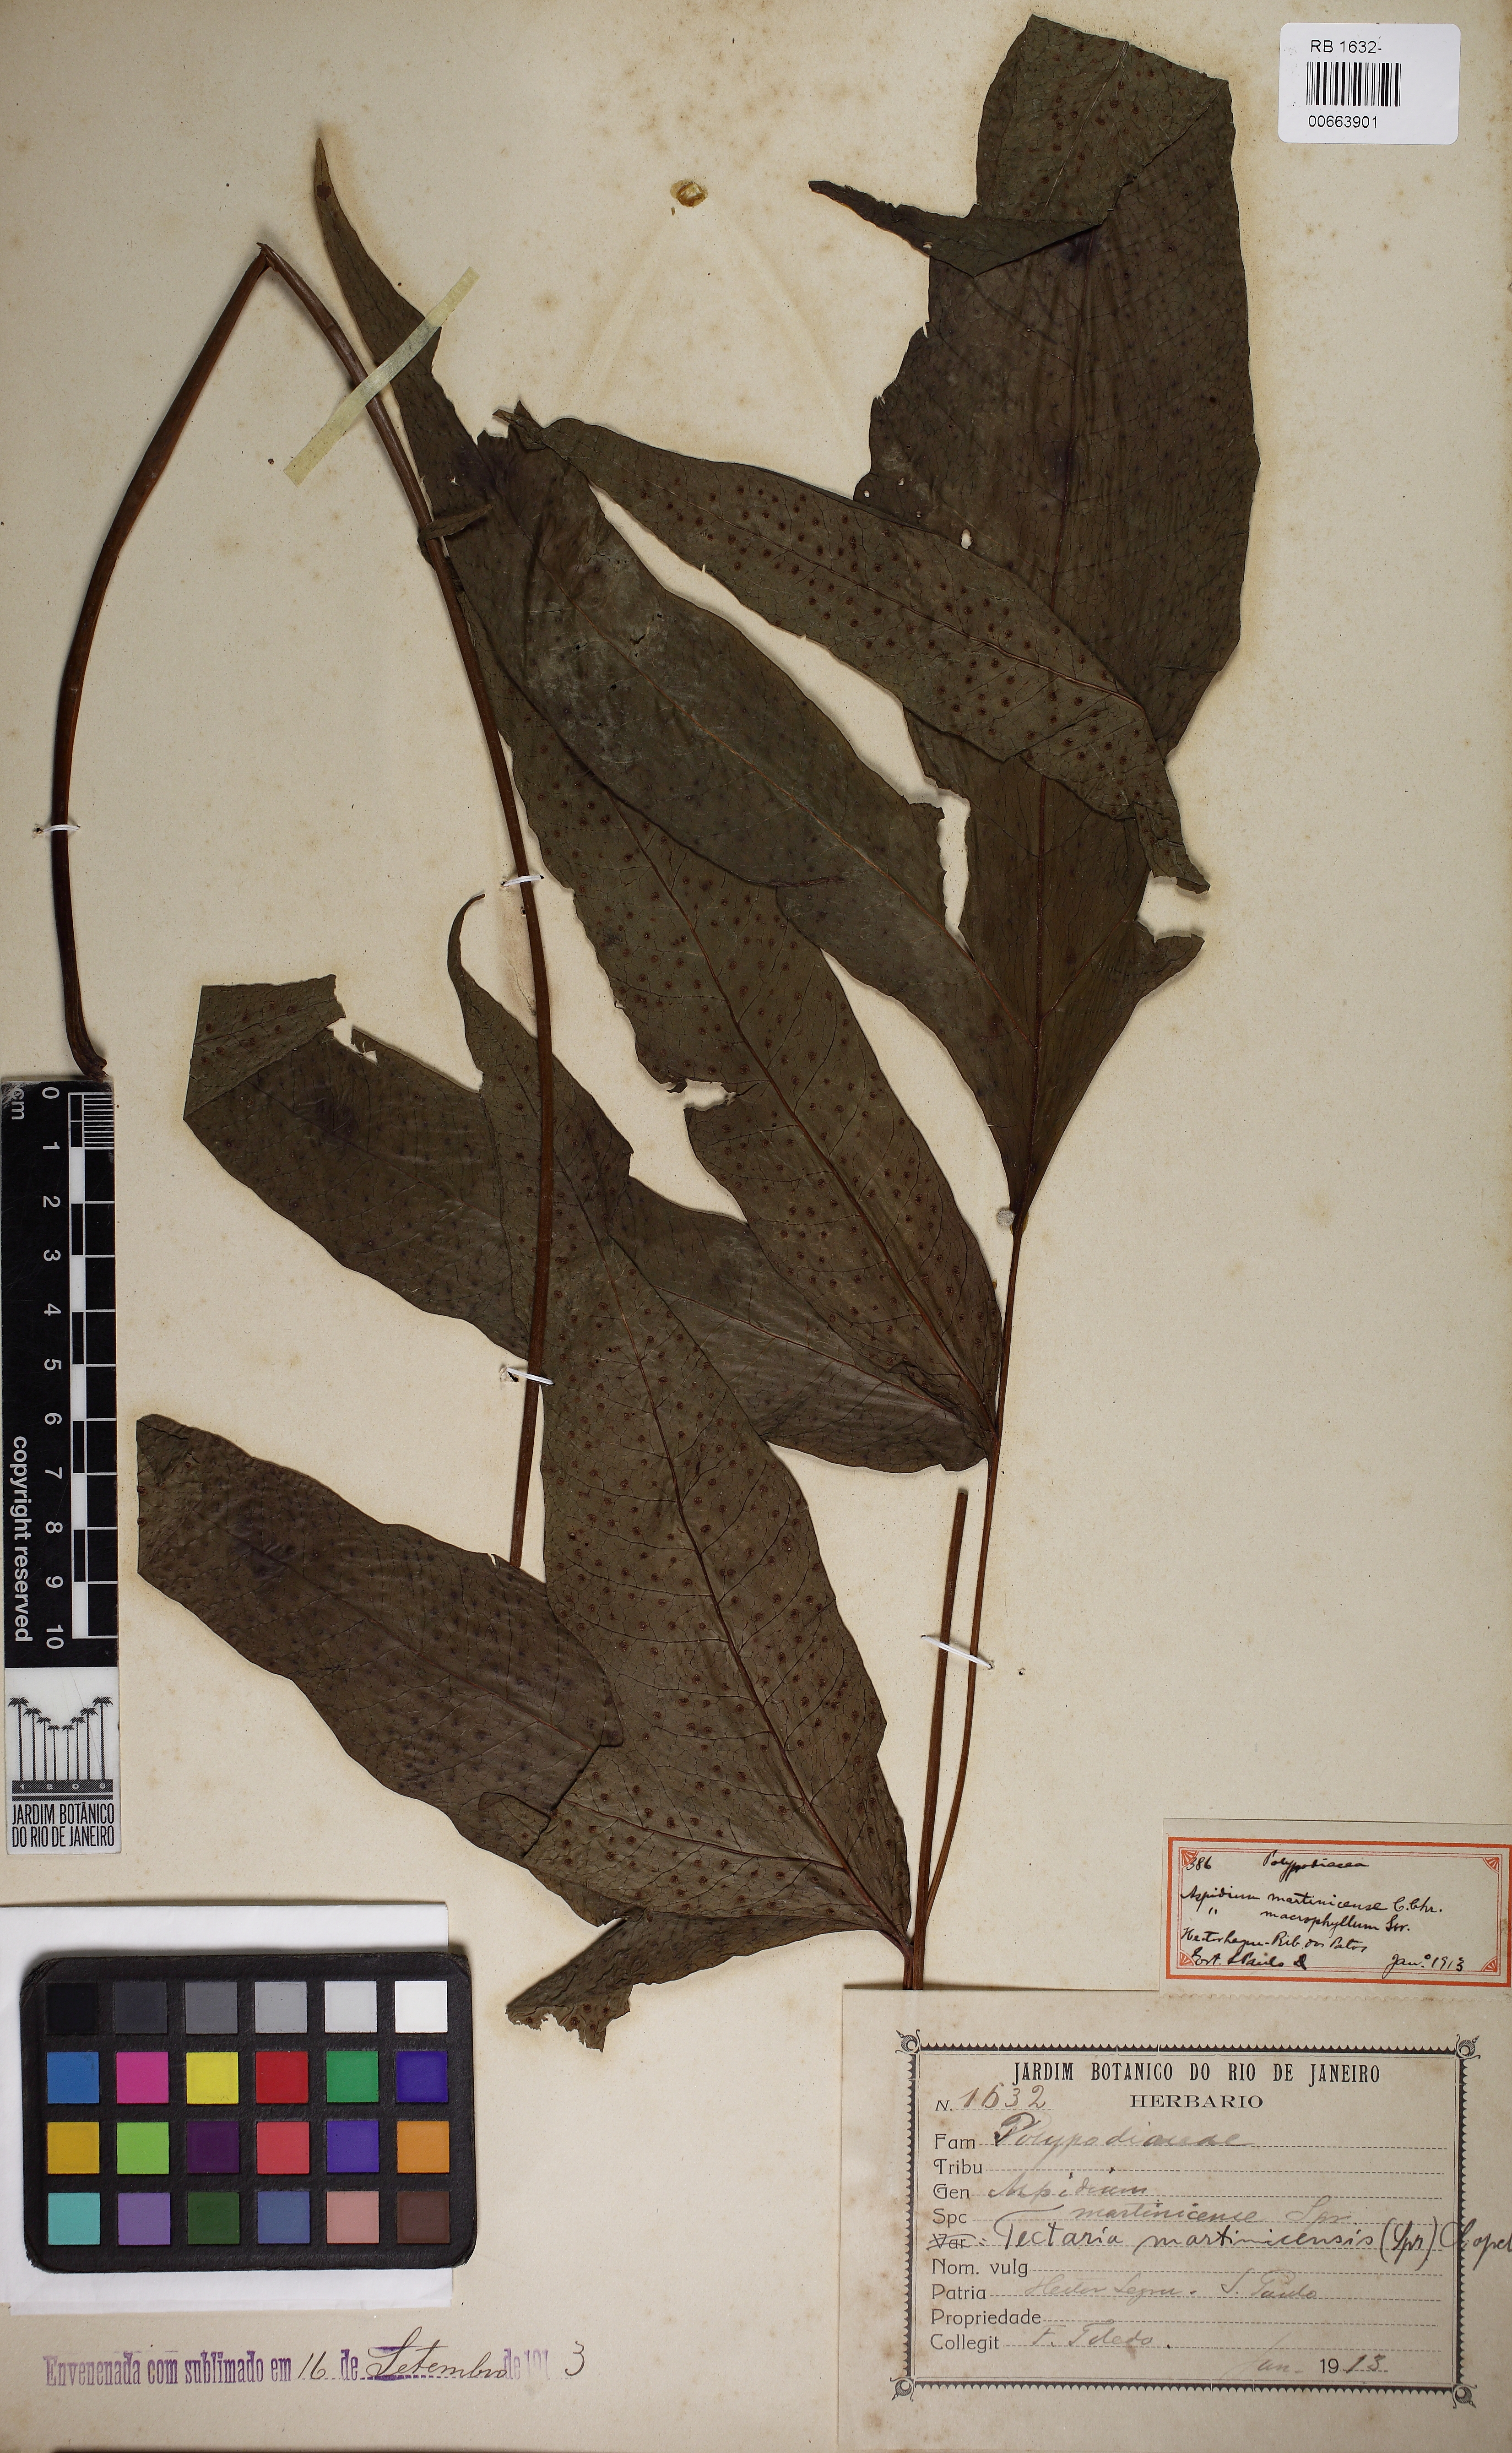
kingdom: Plantae
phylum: Tracheophyta
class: Polypodiopsida
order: Polypodiales
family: Tectariaceae
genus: Tectaria
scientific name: Tectaria incisa
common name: Incised halberd fern
